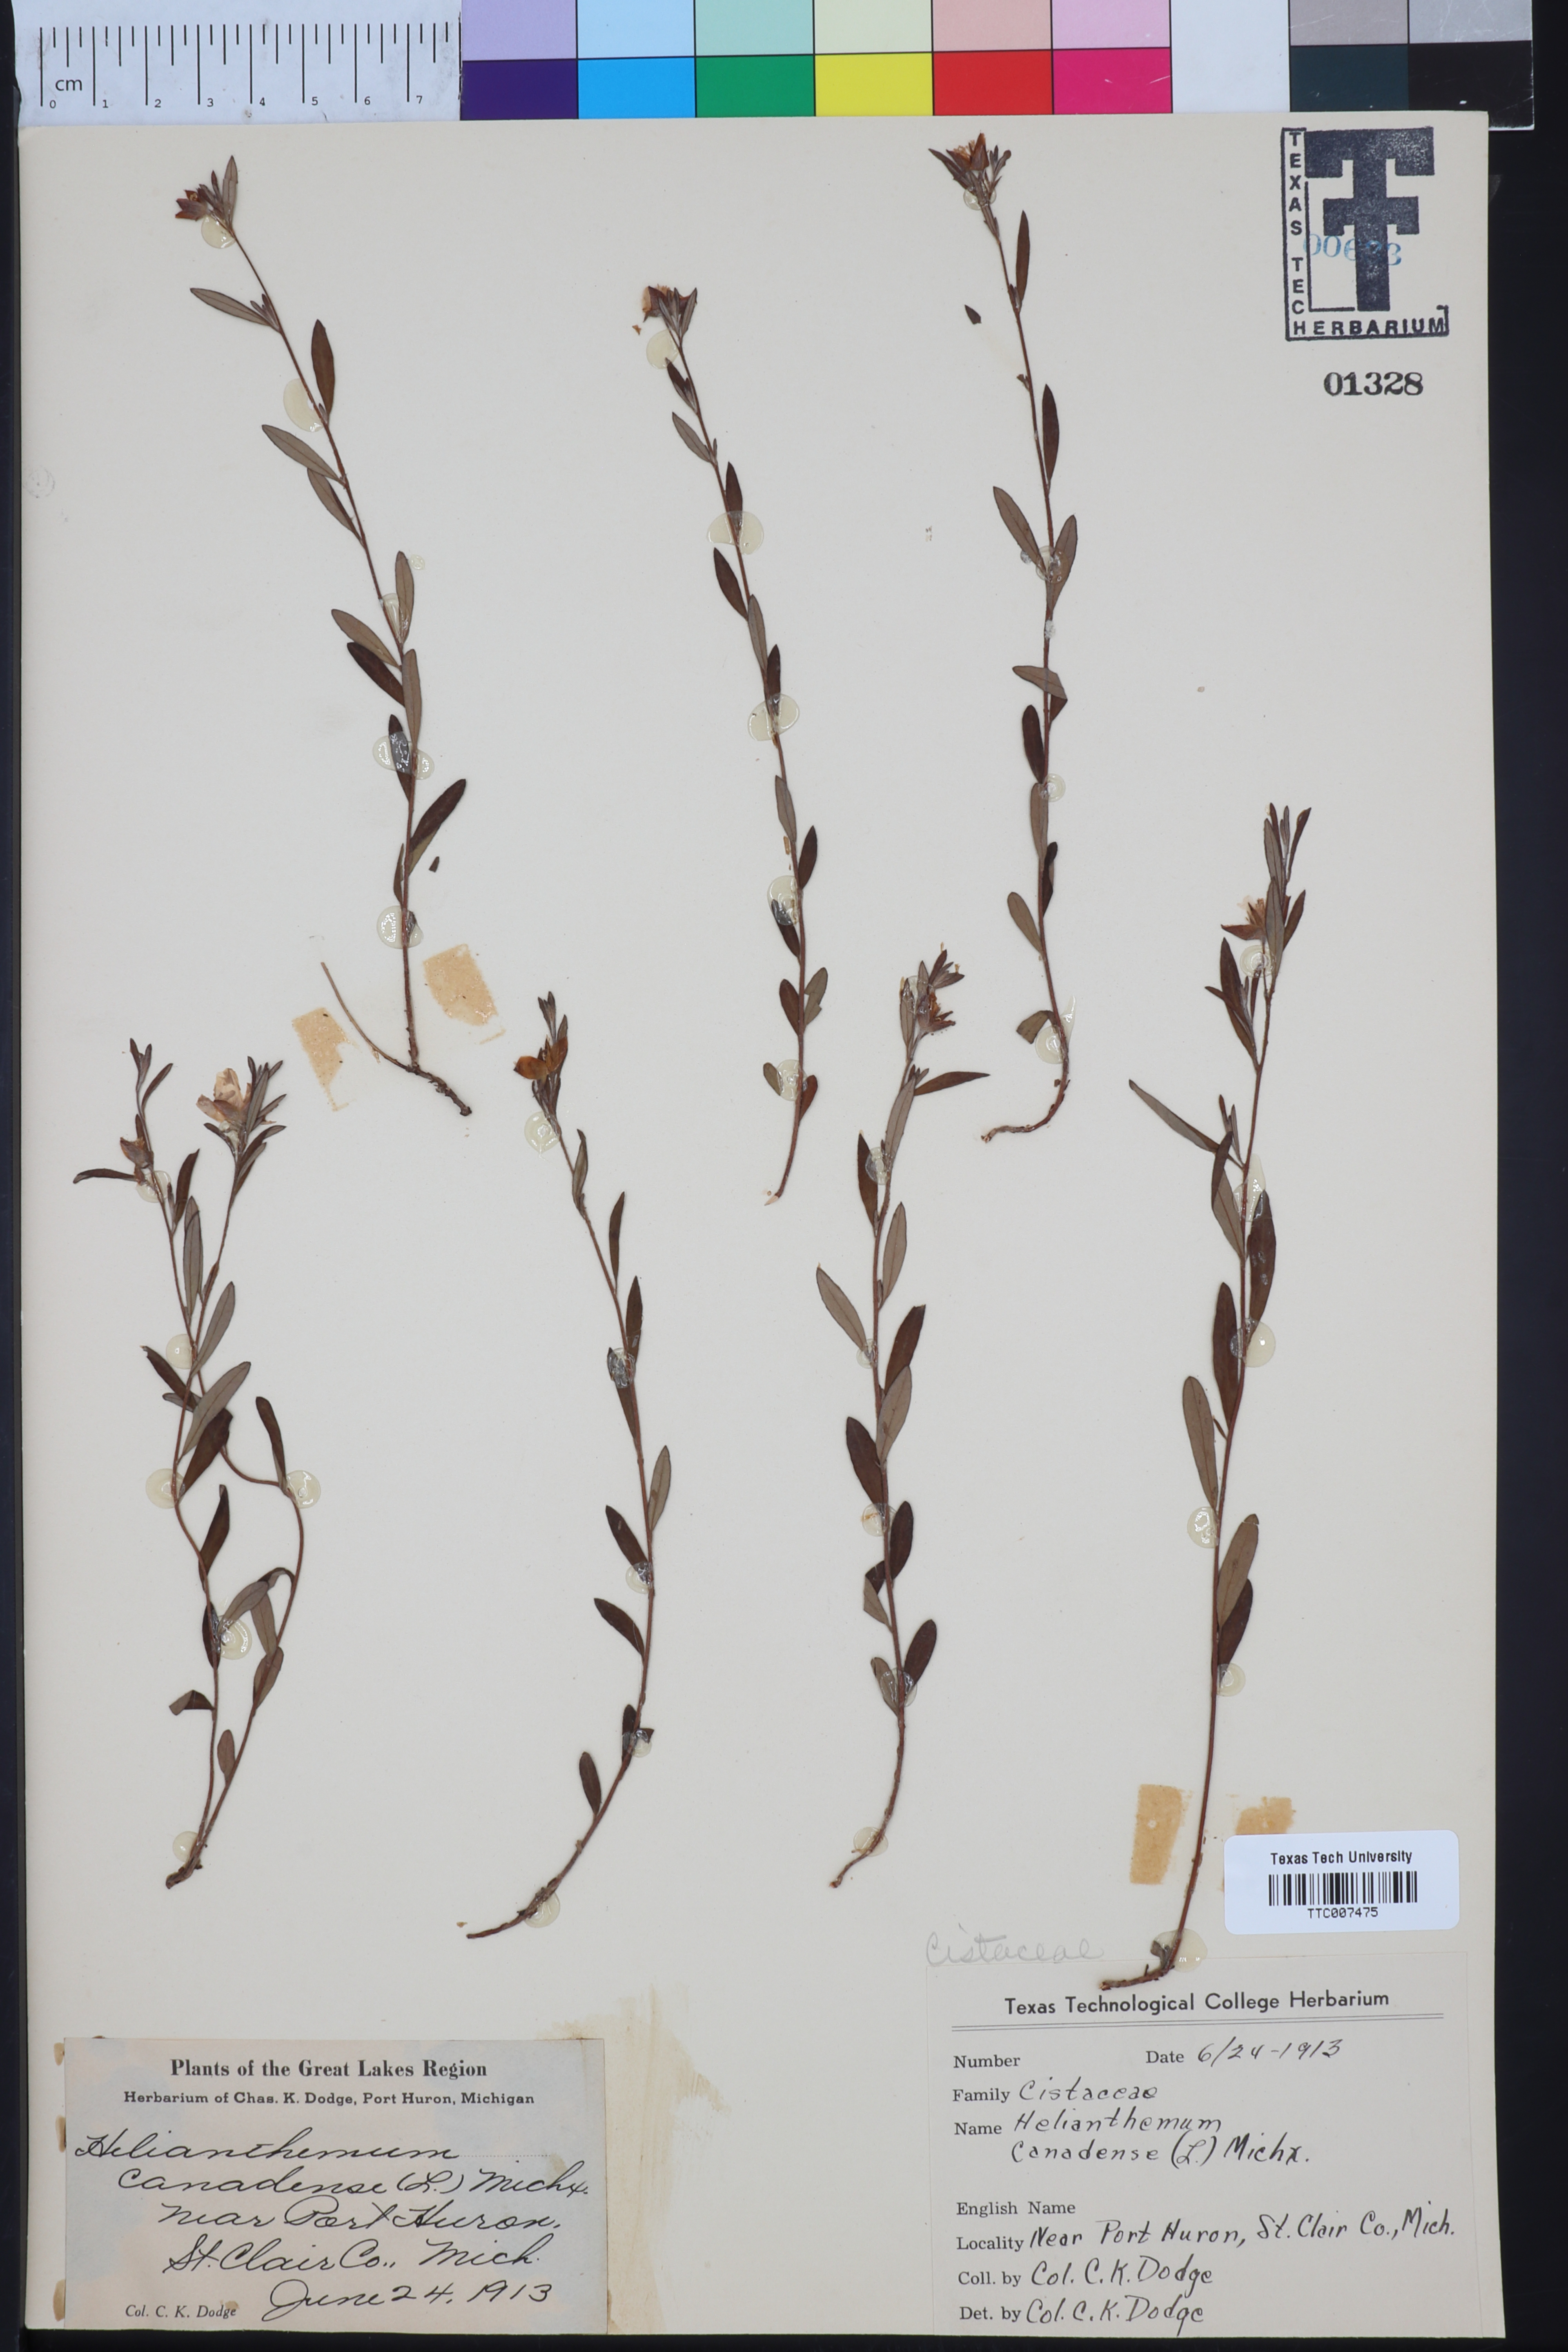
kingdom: Plantae
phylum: Tracheophyta
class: Magnoliopsida
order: Malvales
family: Cistaceae
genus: Crocanthemum
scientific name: Crocanthemum canadense
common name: Canada frostweed
